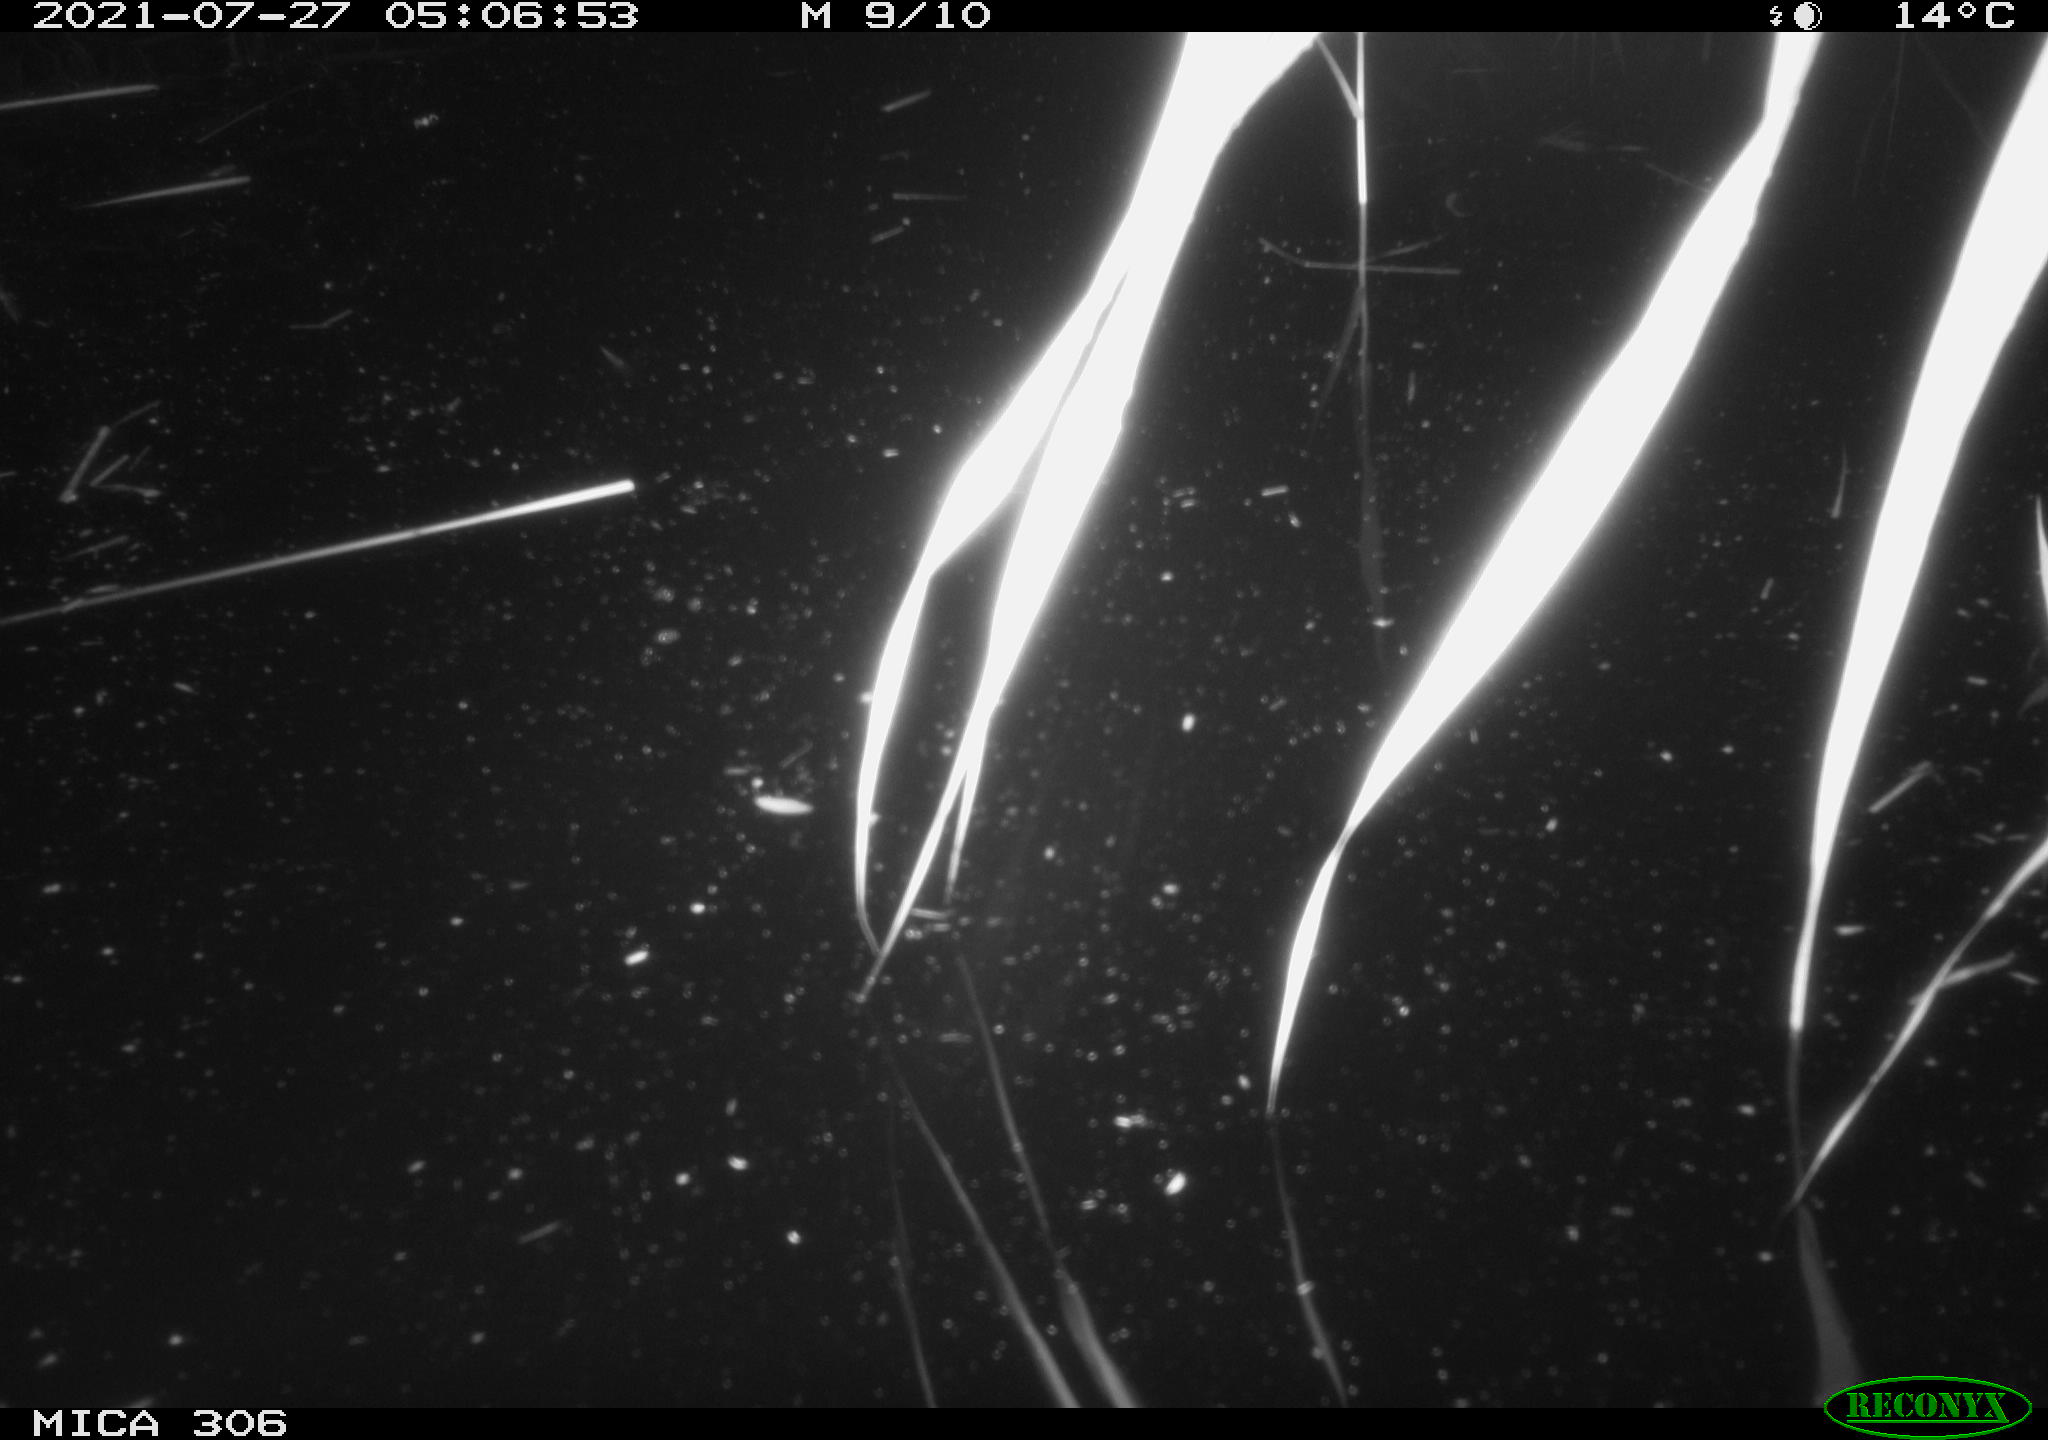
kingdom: Animalia
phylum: Chordata
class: Aves
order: Anseriformes
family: Anatidae
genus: Anas
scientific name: Anas platyrhynchos
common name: Mallard
